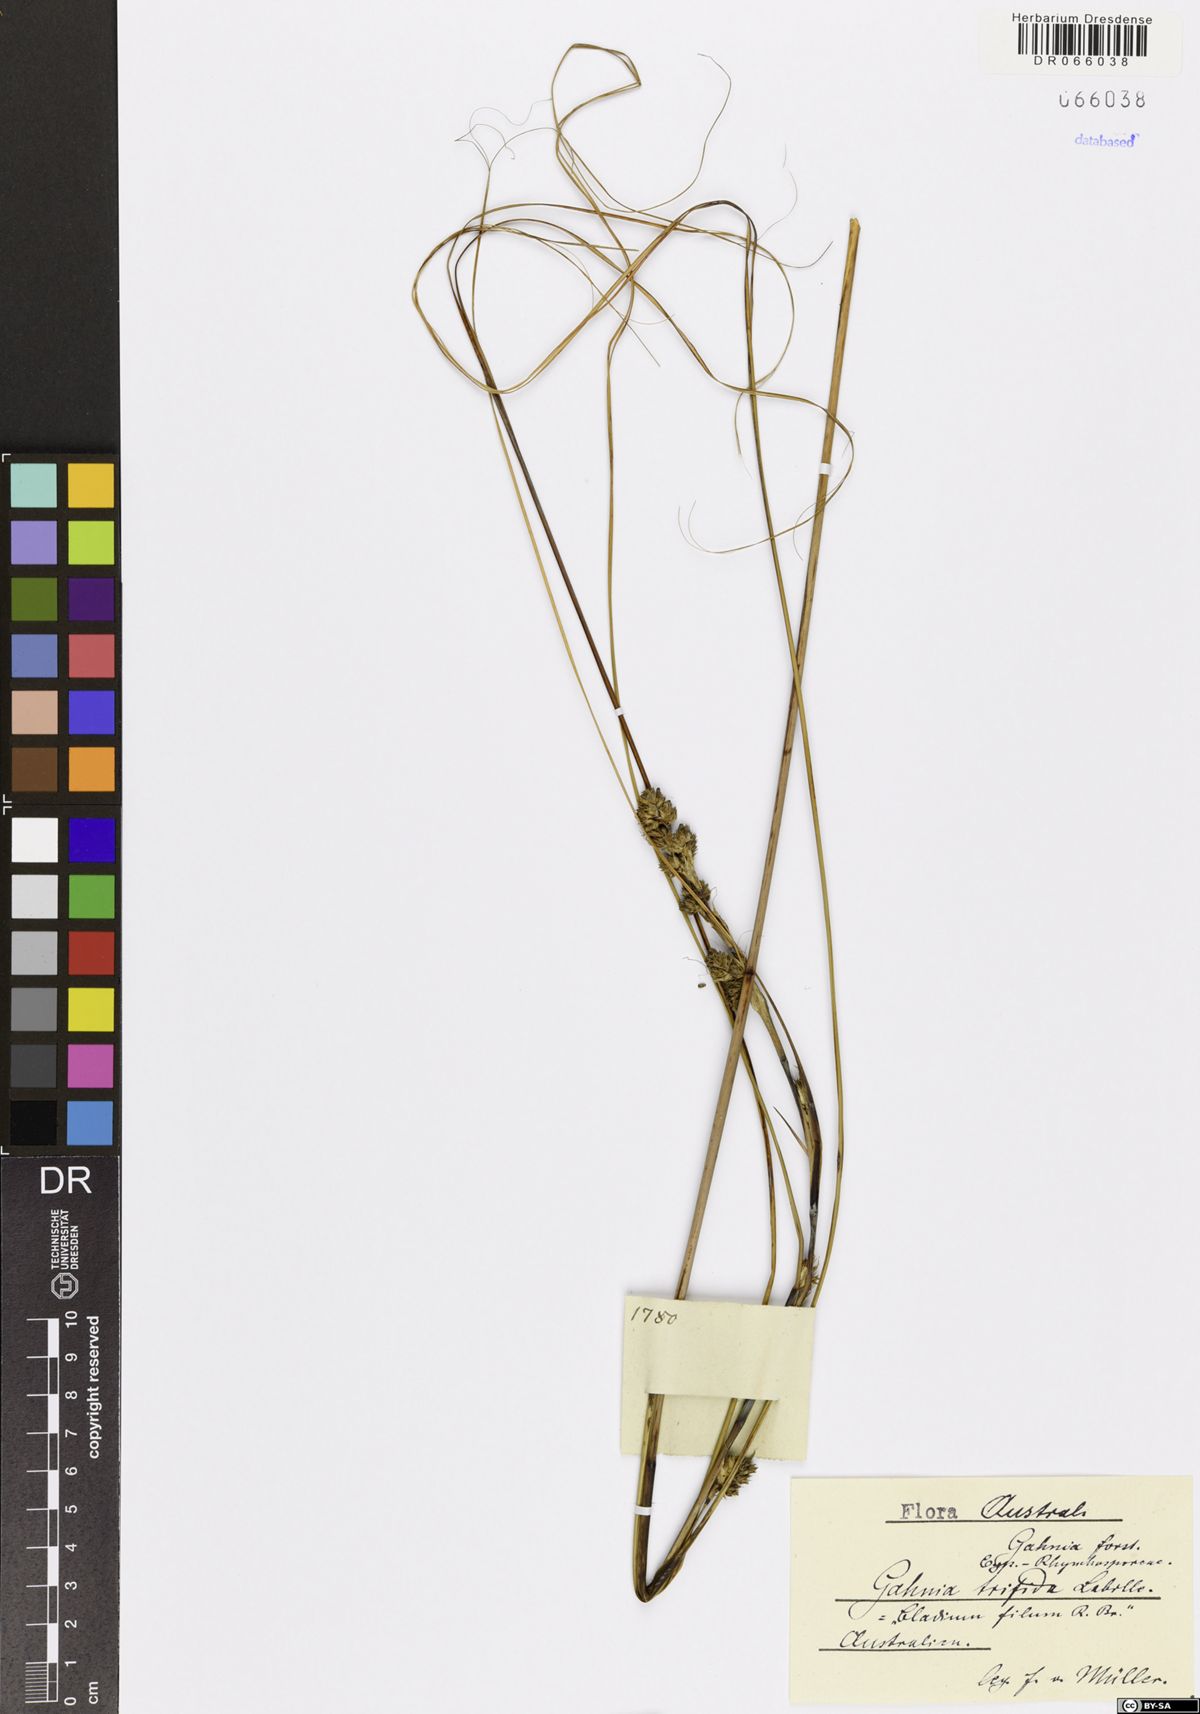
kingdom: Plantae
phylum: Tracheophyta
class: Liliopsida
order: Poales
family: Cyperaceae
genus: Gahnia
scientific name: Gahnia trifida
